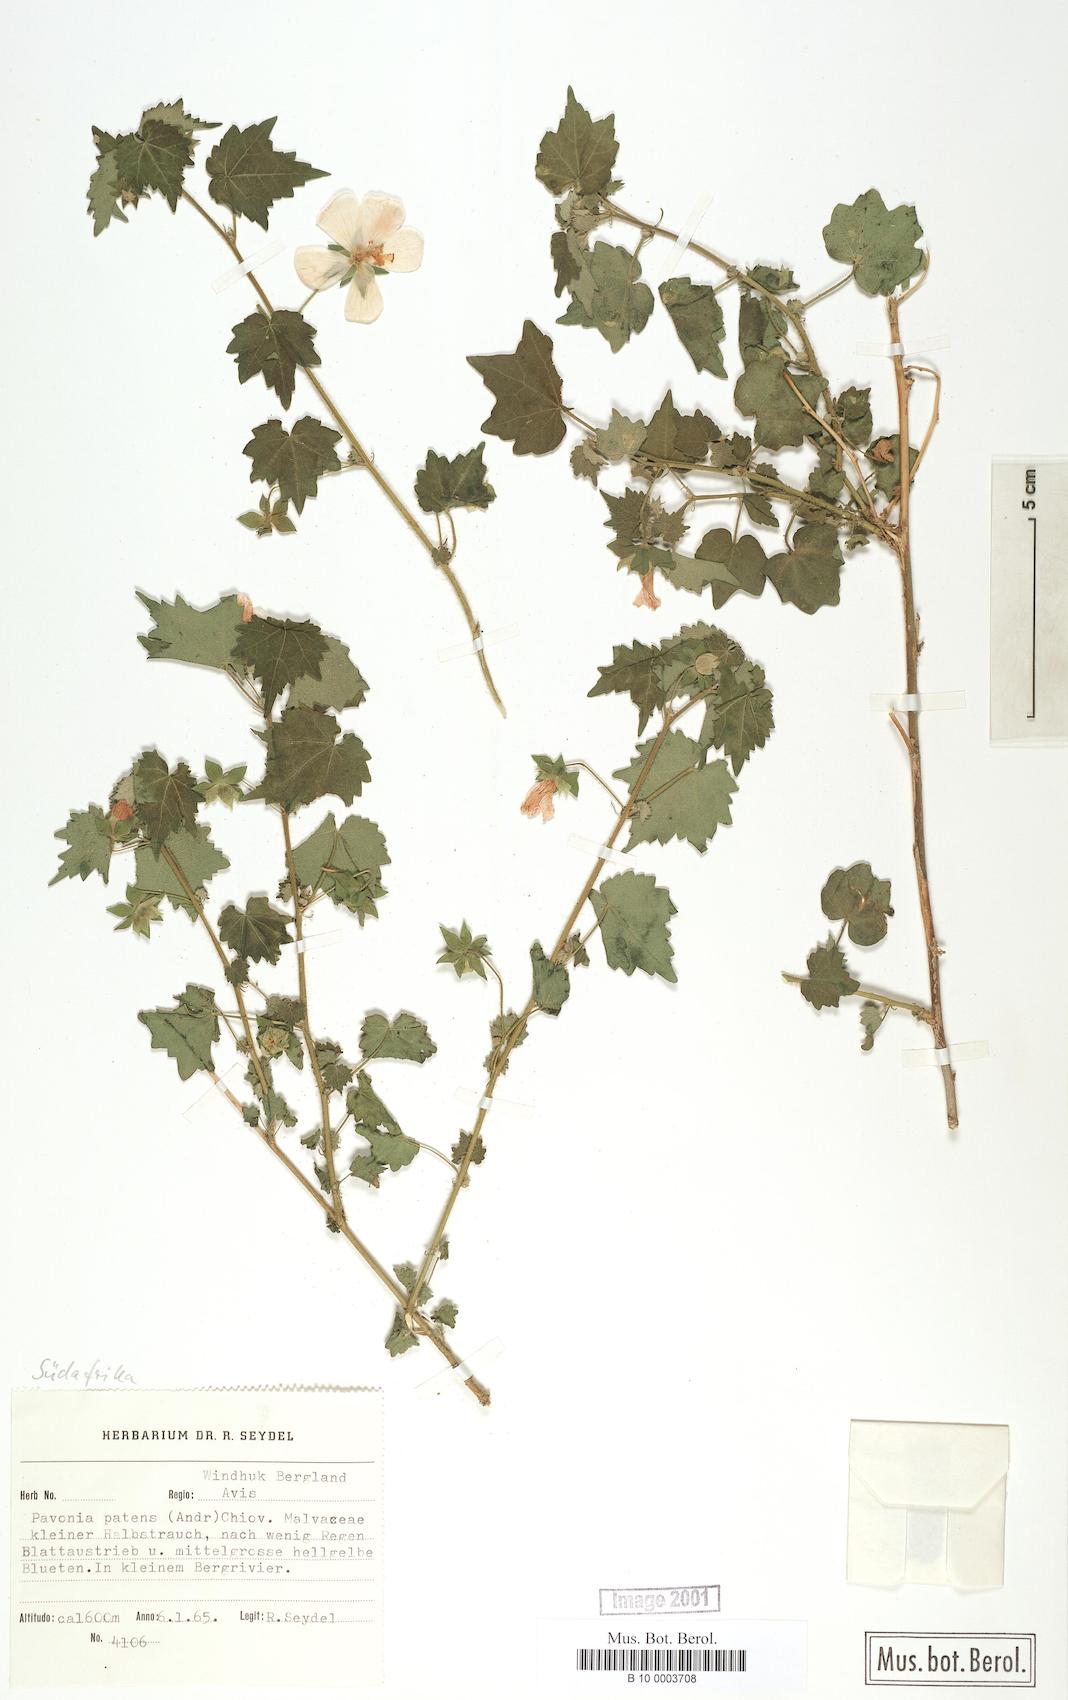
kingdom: Plantae
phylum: Tracheophyta
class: Magnoliopsida
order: Malvales
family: Malvaceae
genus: Abutilon
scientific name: Abutilon mauritianum
